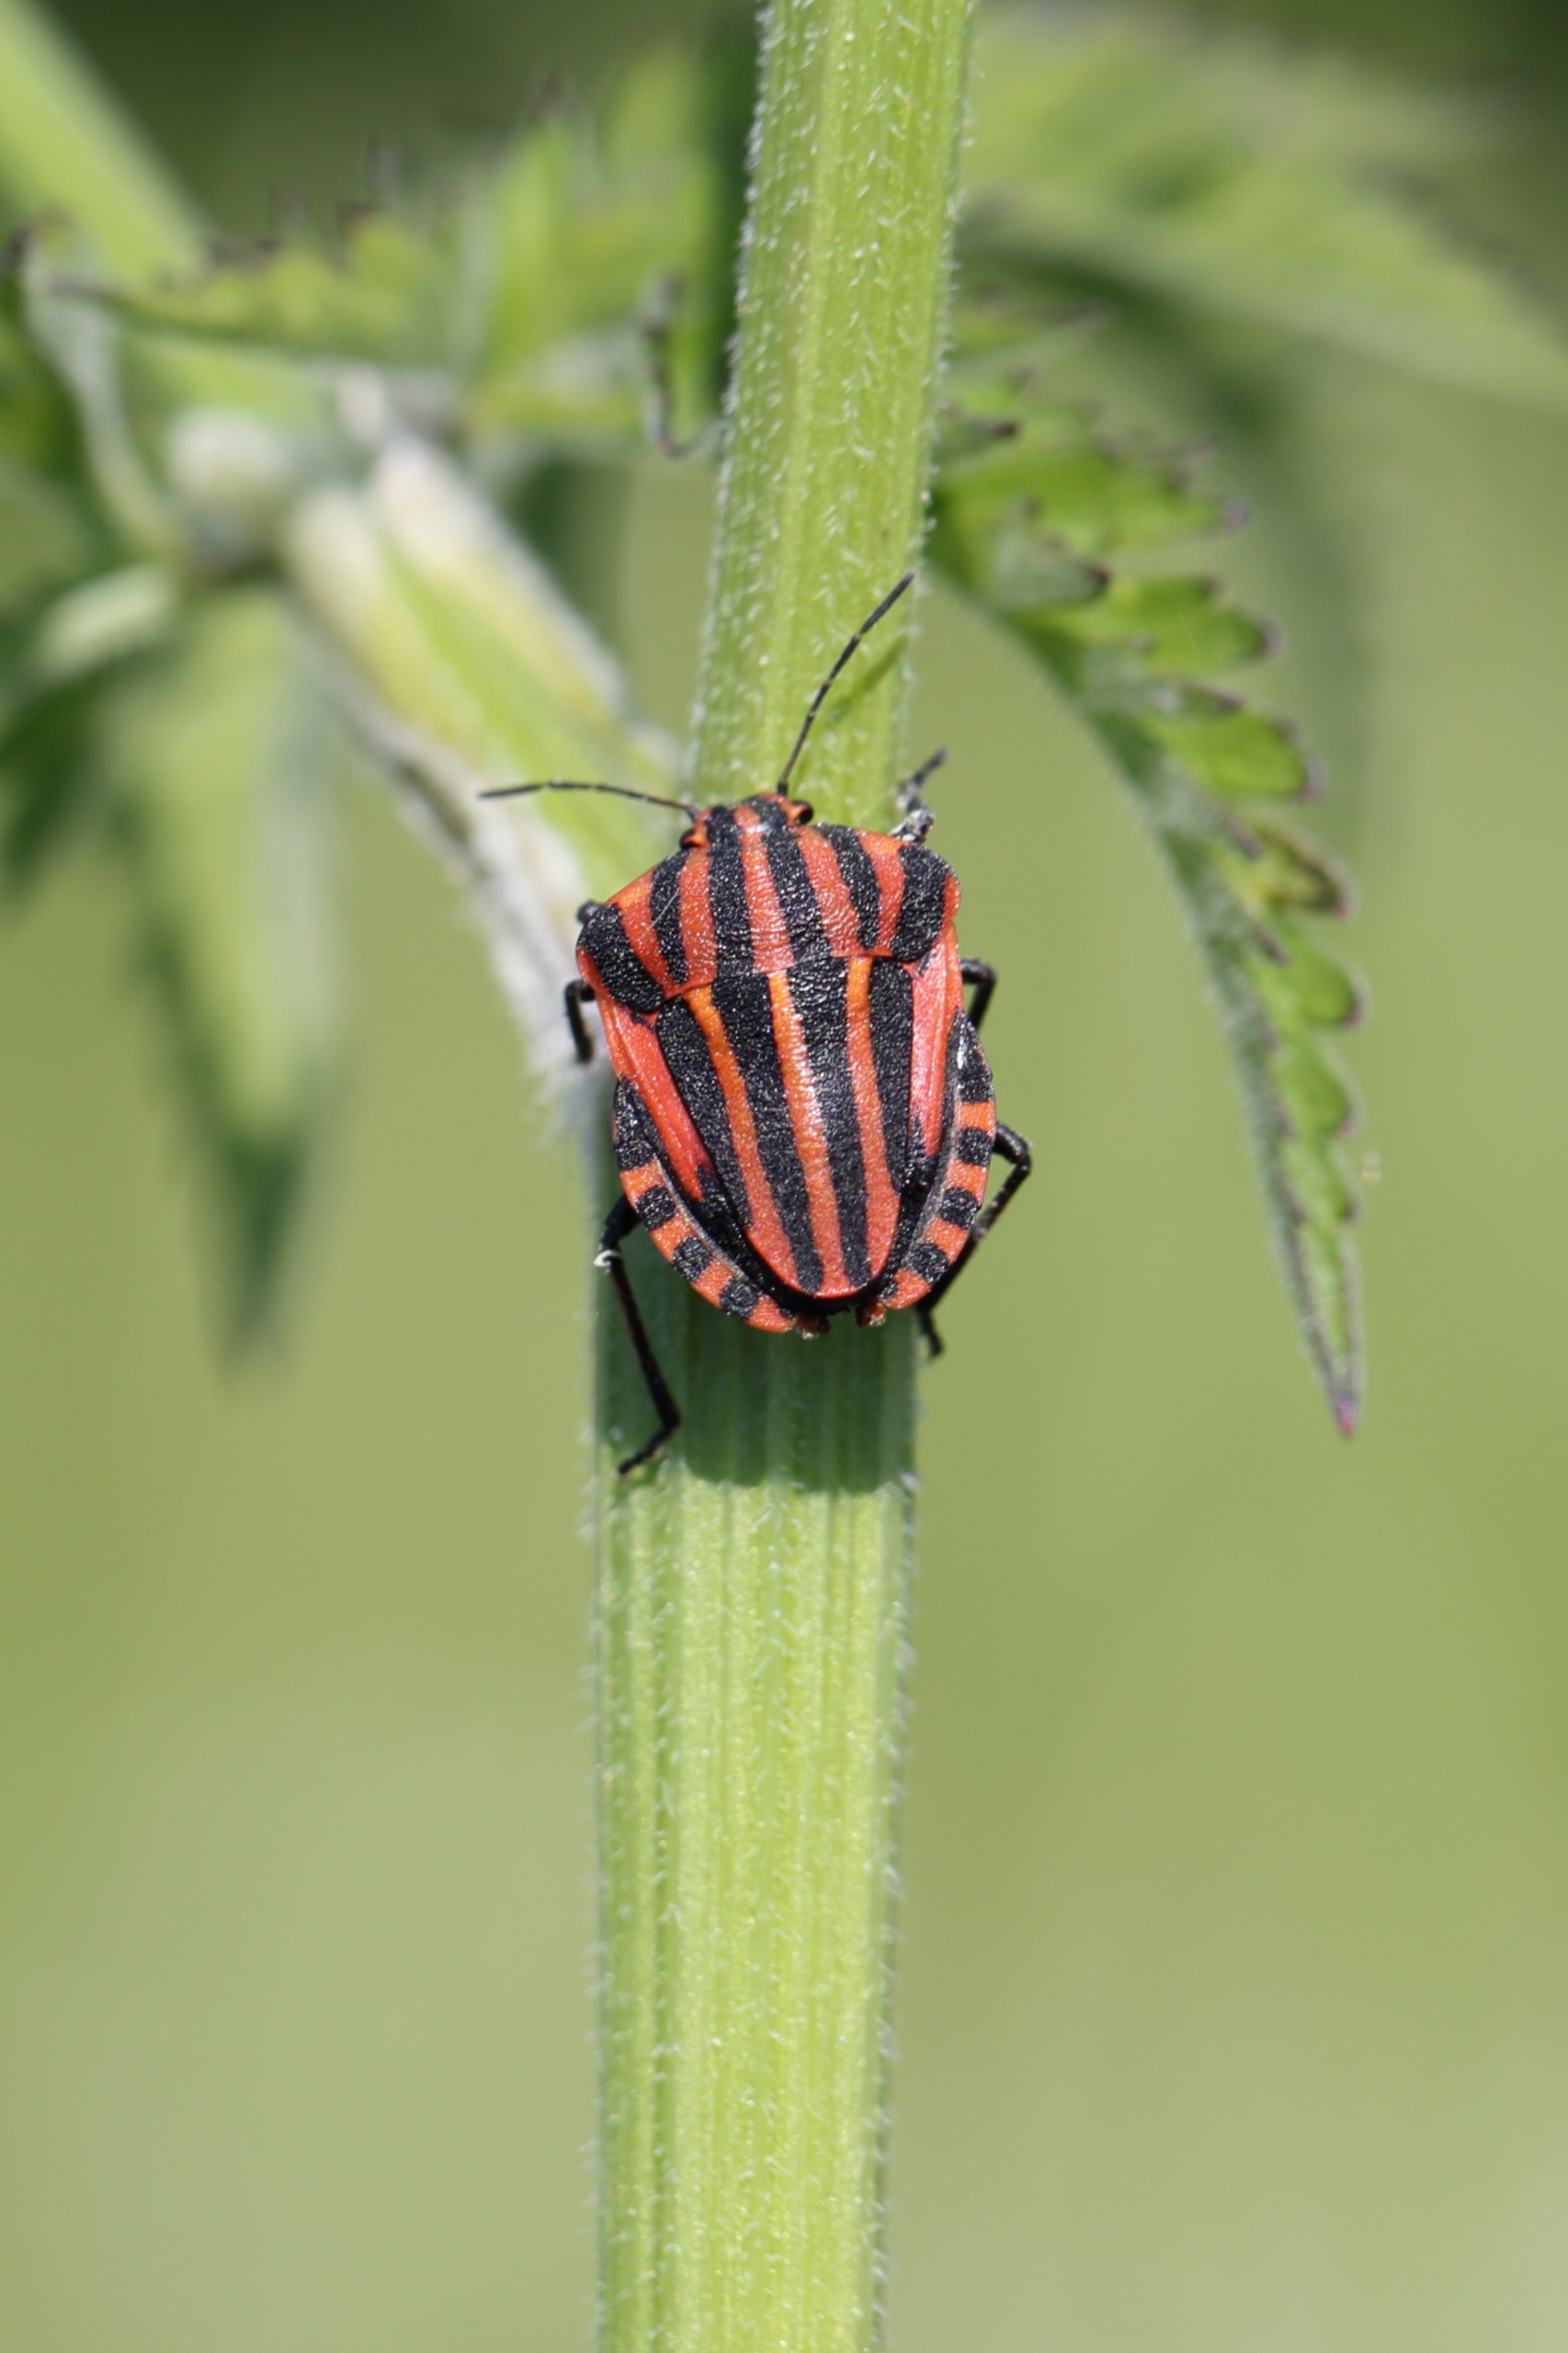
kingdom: Animalia
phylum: Arthropoda
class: Insecta
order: Hemiptera
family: Pentatomidae
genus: Graphosoma
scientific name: Graphosoma italicum
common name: Stribetæge
